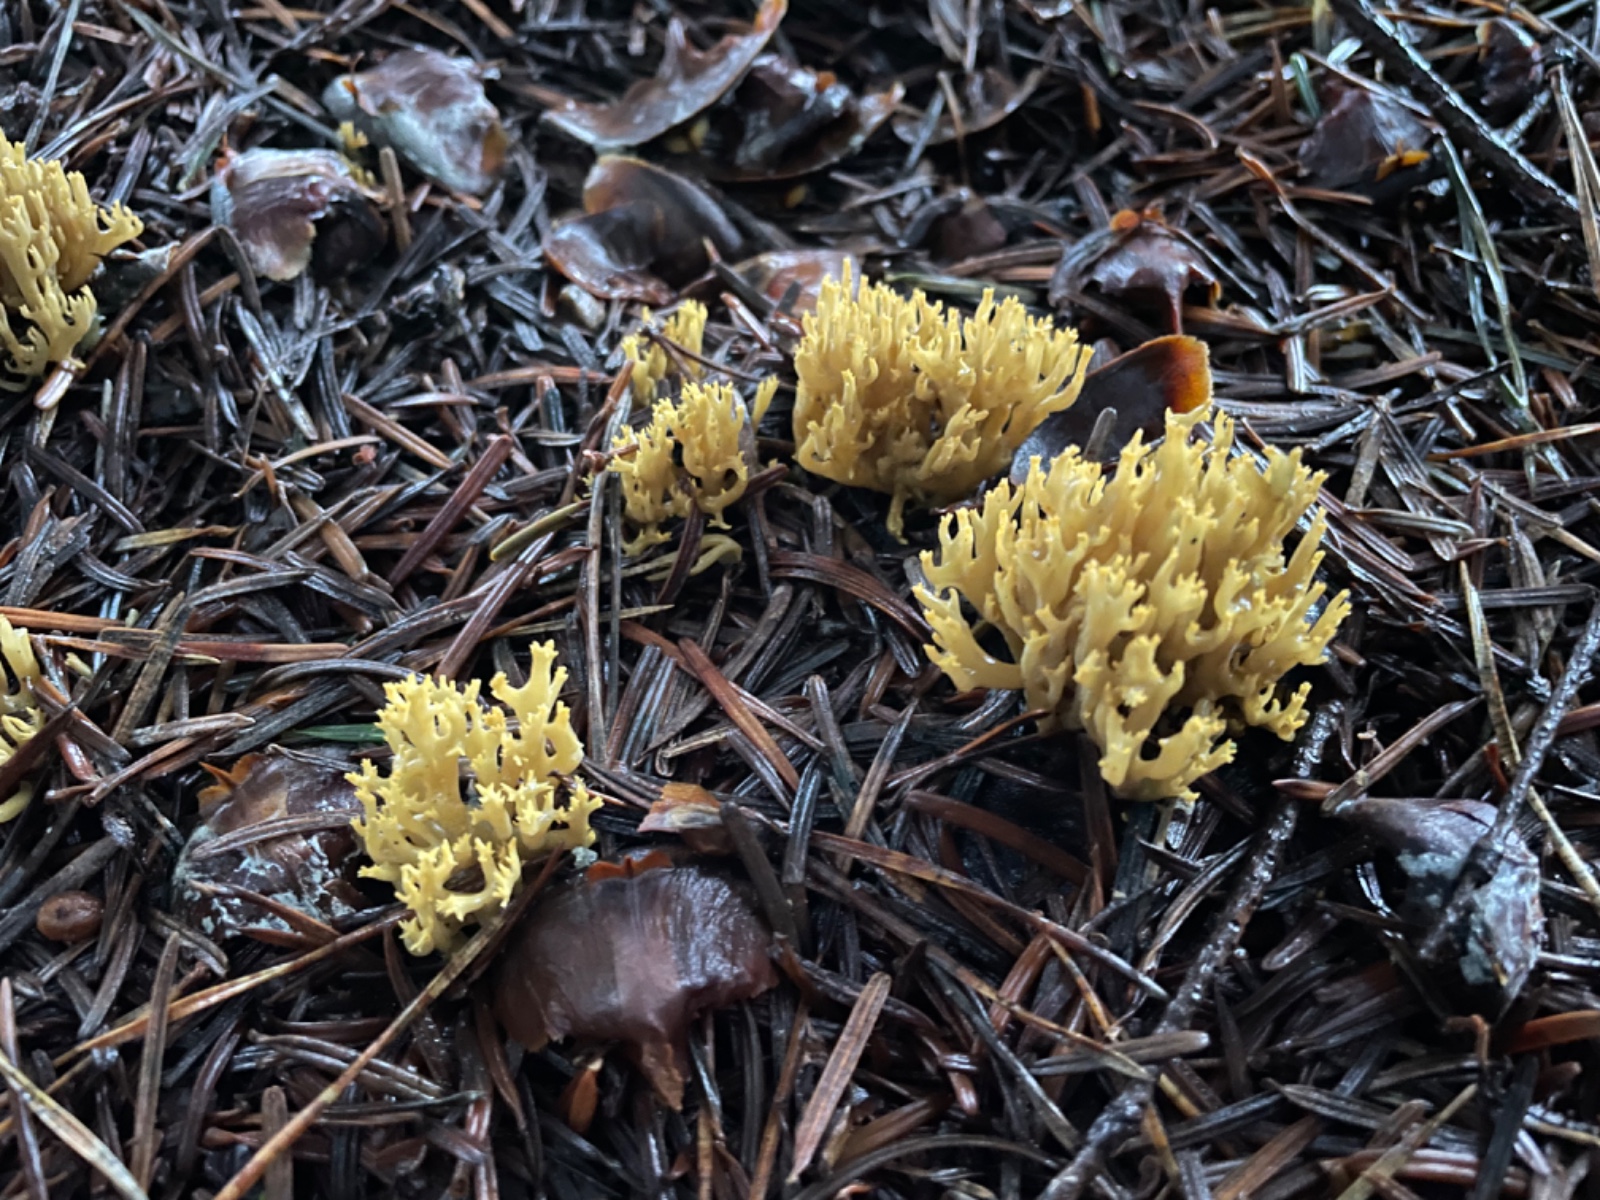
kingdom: Fungi
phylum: Basidiomycota
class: Agaricomycetes
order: Gomphales
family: Gomphaceae
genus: Phaeoclavulina
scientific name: Phaeoclavulina eumorpha
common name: gran-koralsvamp
